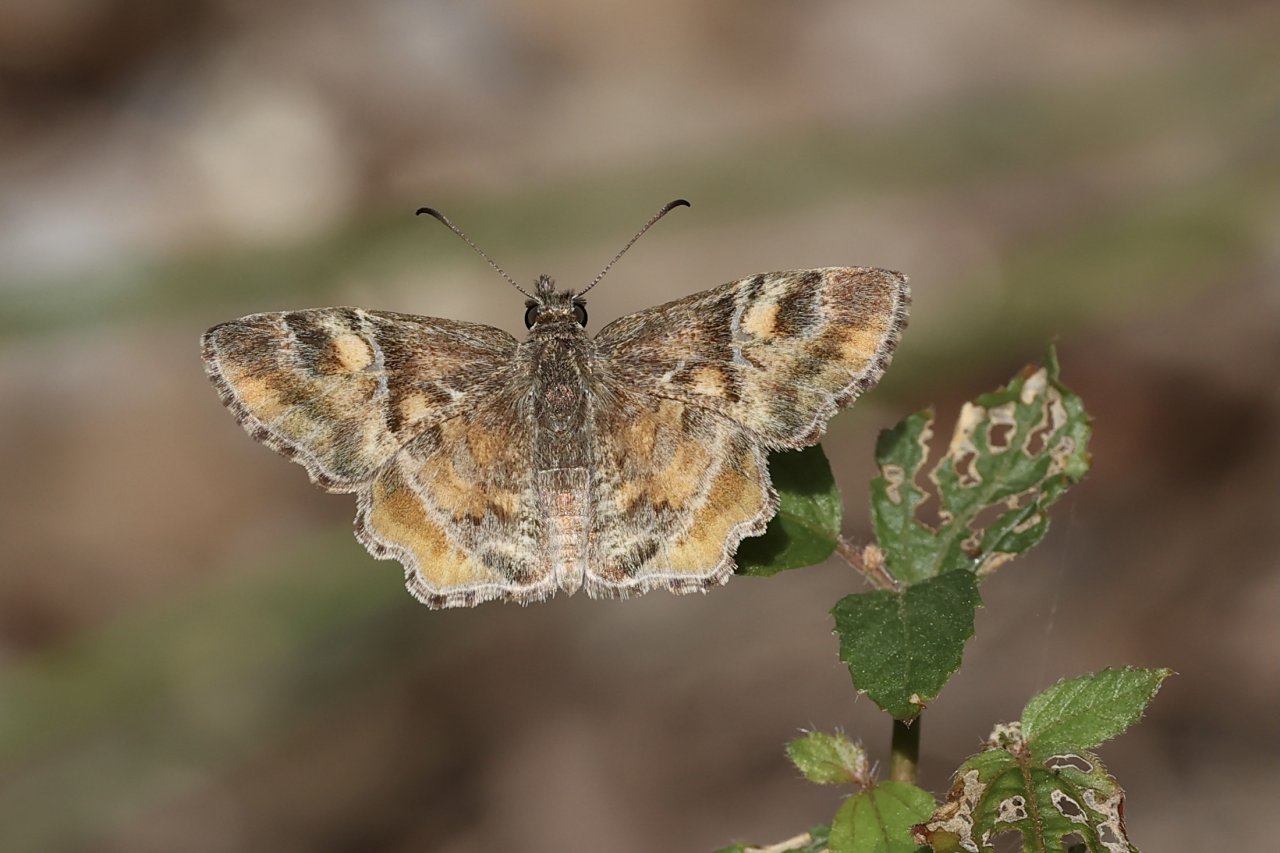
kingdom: Animalia
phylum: Arthropoda
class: Insecta
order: Lepidoptera
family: Hesperiidae
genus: Systasea
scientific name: Systasea pulverulenta
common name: Texas Powdered-Skipper
